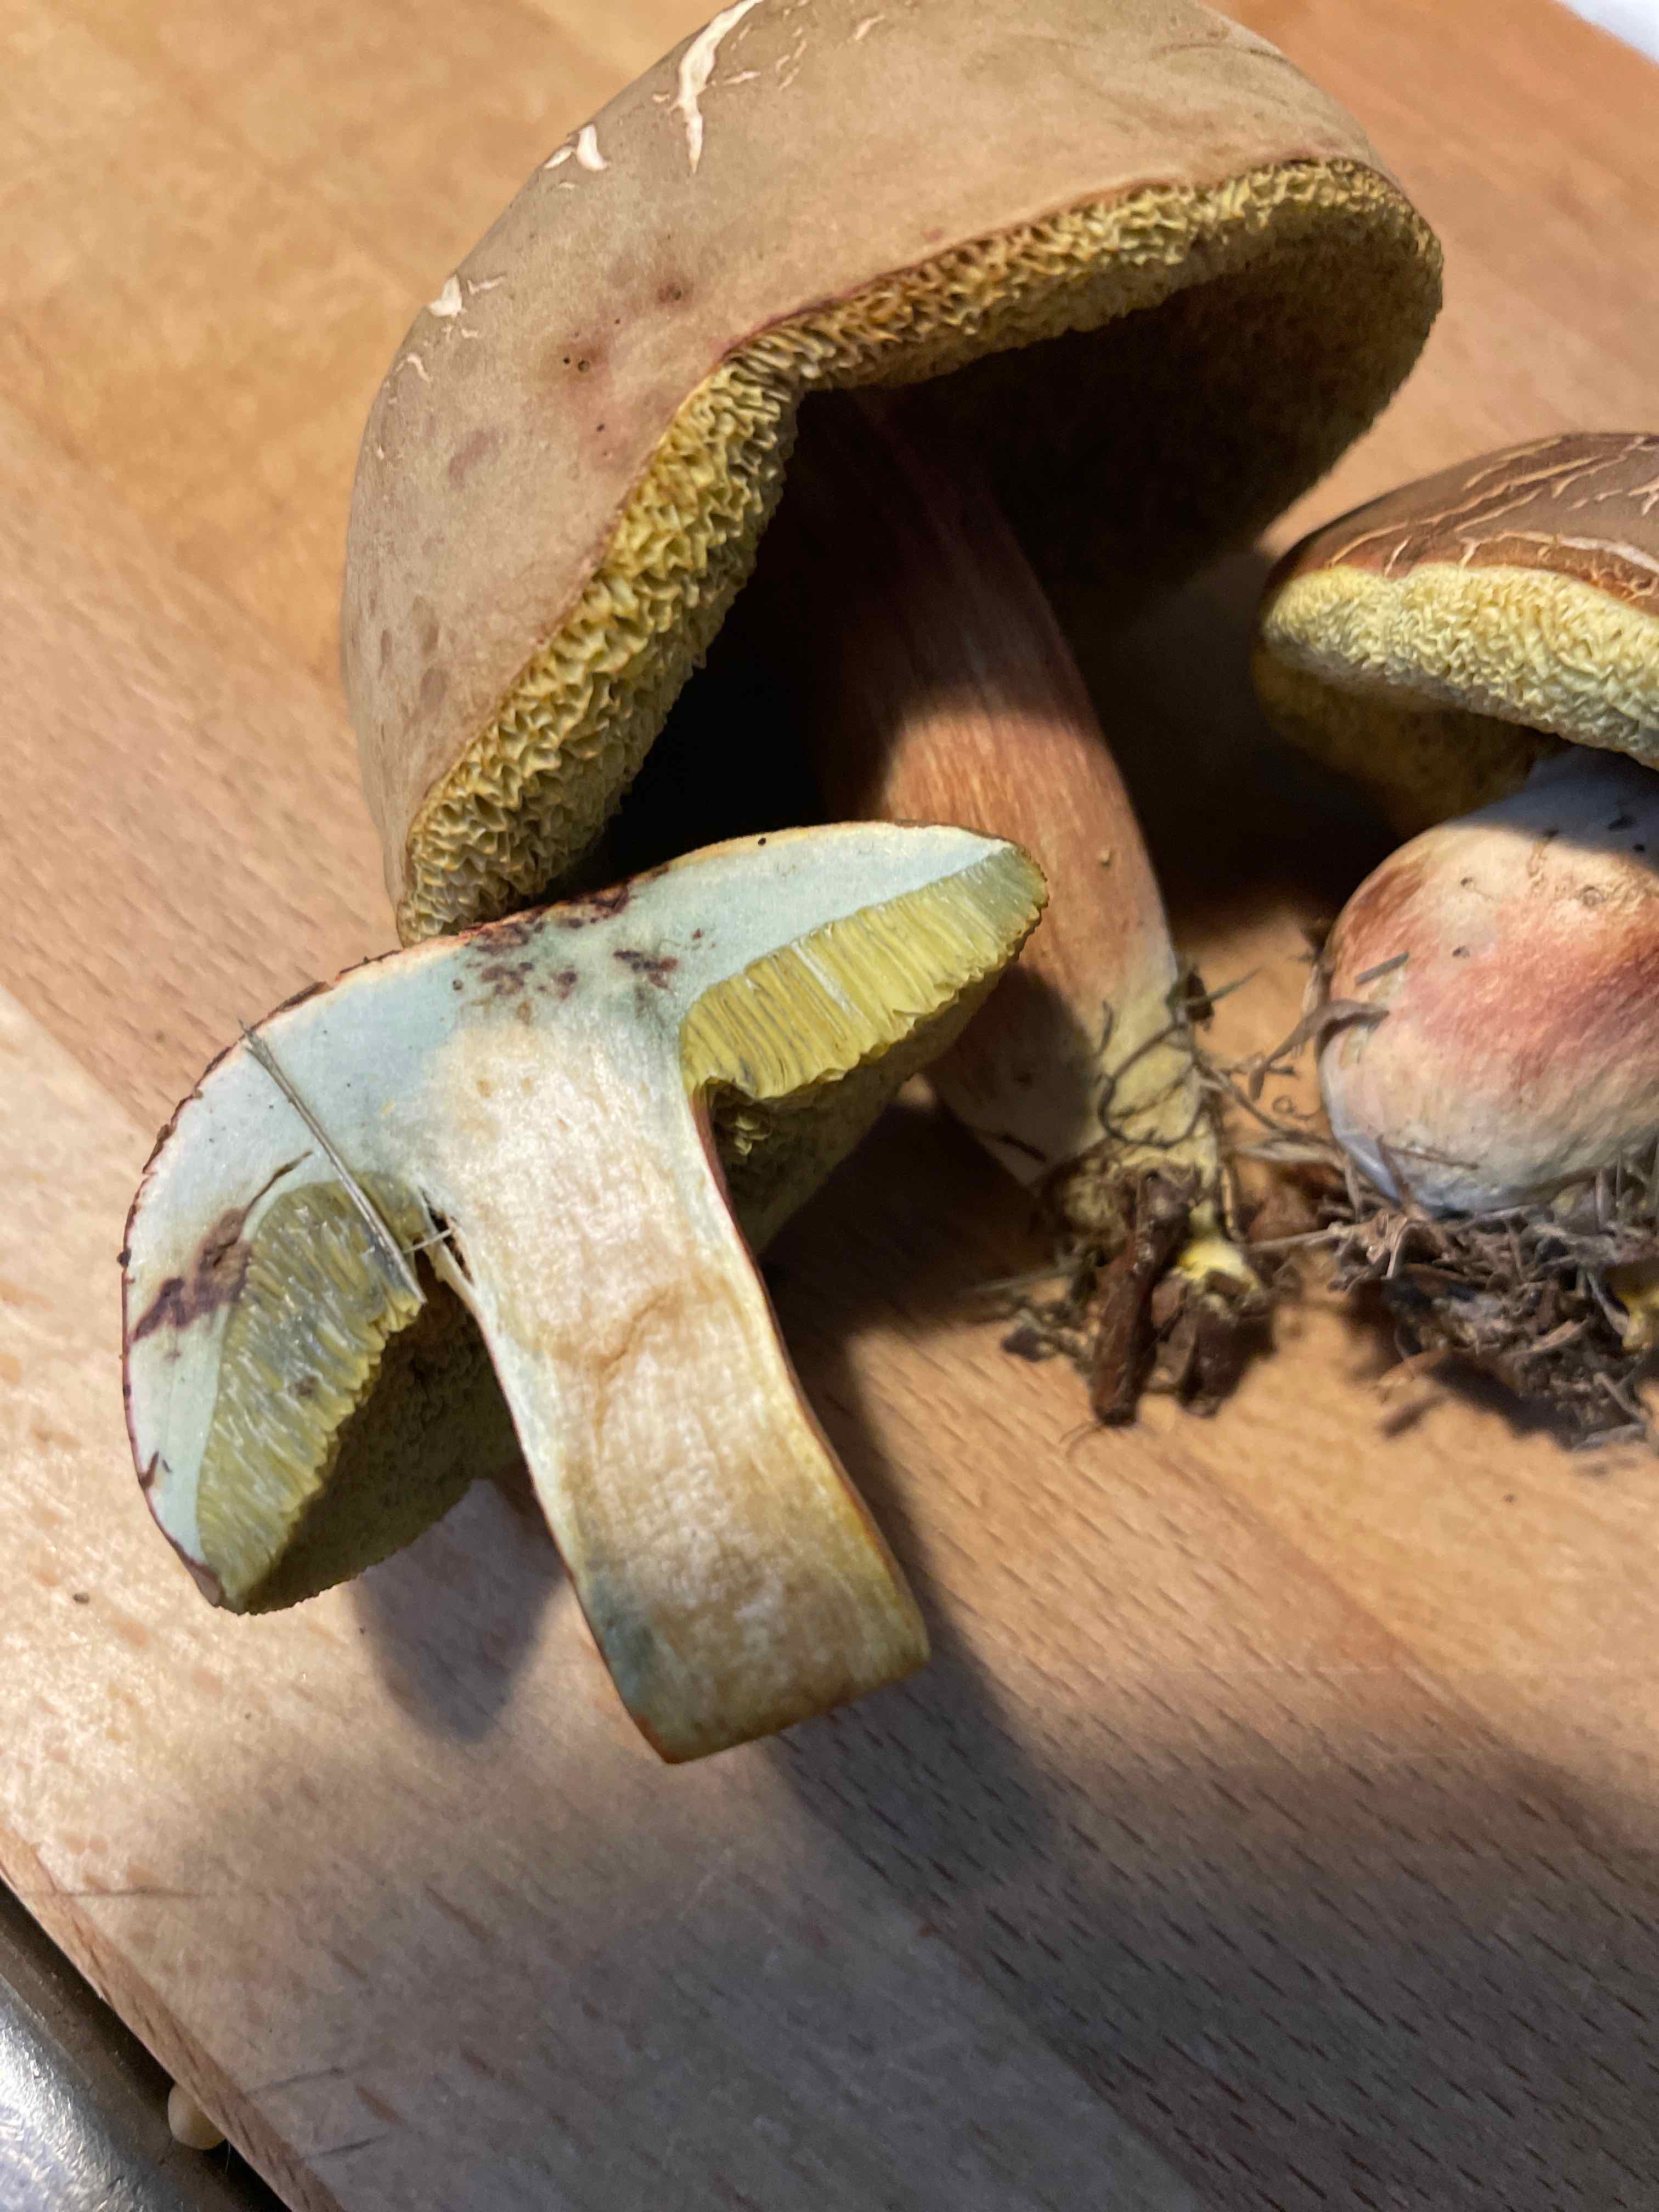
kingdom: Fungi
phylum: Basidiomycota
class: Agaricomycetes
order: Boletales
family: Boletaceae
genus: Hortiboletus
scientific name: Hortiboletus bubalinus
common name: aurora-rørhat
